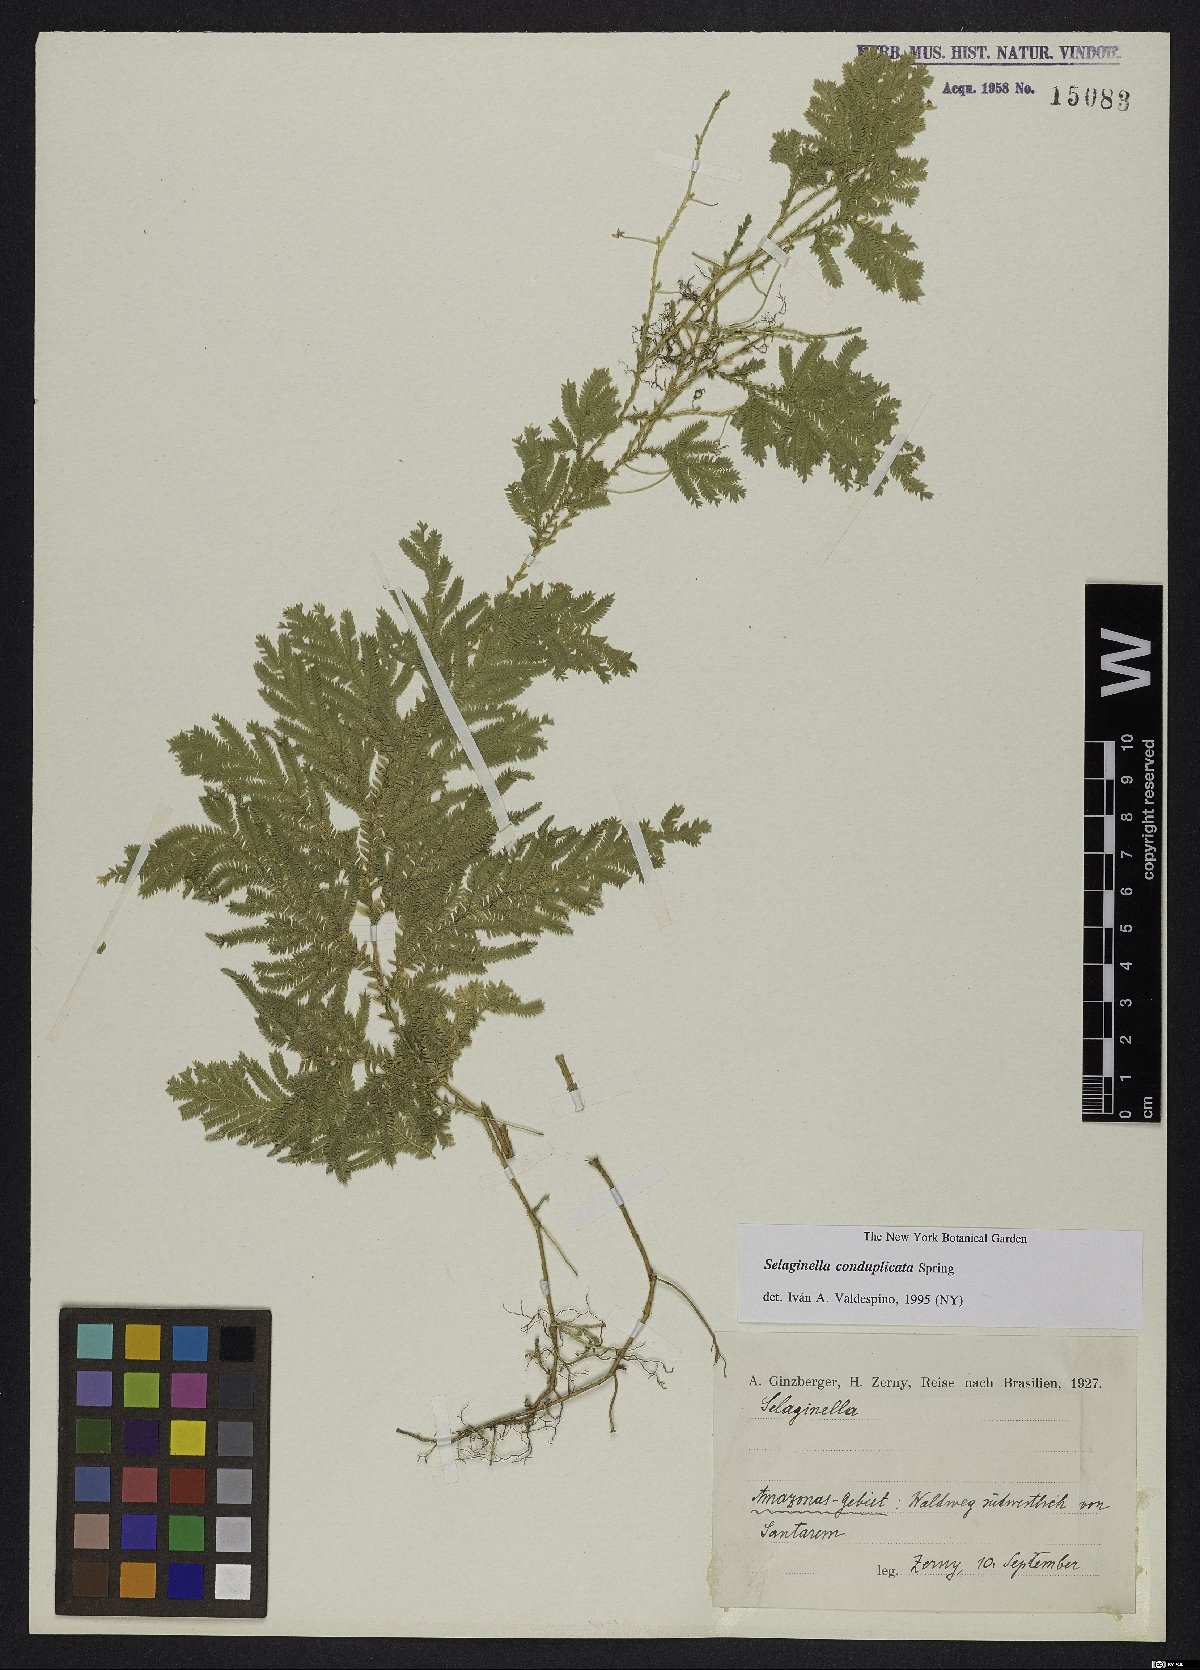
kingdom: Plantae
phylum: Tracheophyta
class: Lycopodiopsida
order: Selaginellales
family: Selaginellaceae
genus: Selaginella
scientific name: Selaginella conduplicata
